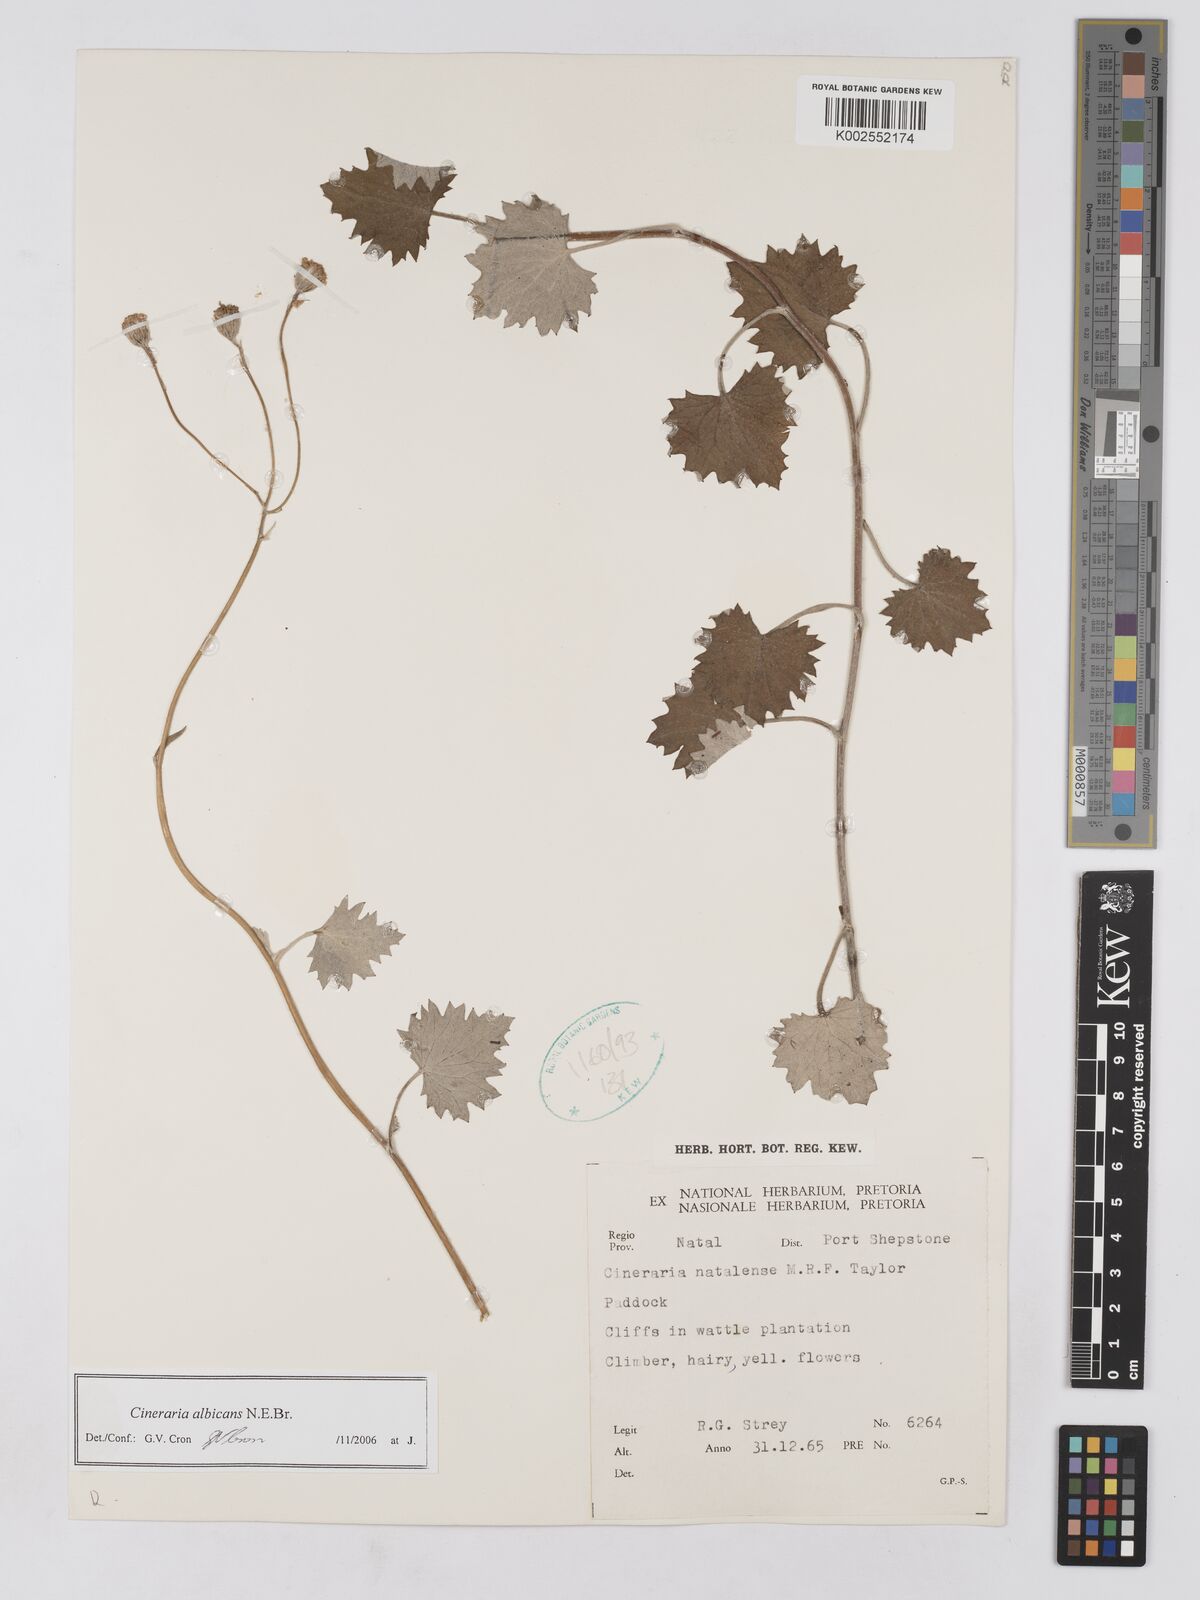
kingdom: Plantae
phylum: Tracheophyta
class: Magnoliopsida
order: Asterales
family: Asteraceae
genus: Cineraria
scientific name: Cineraria albicans
